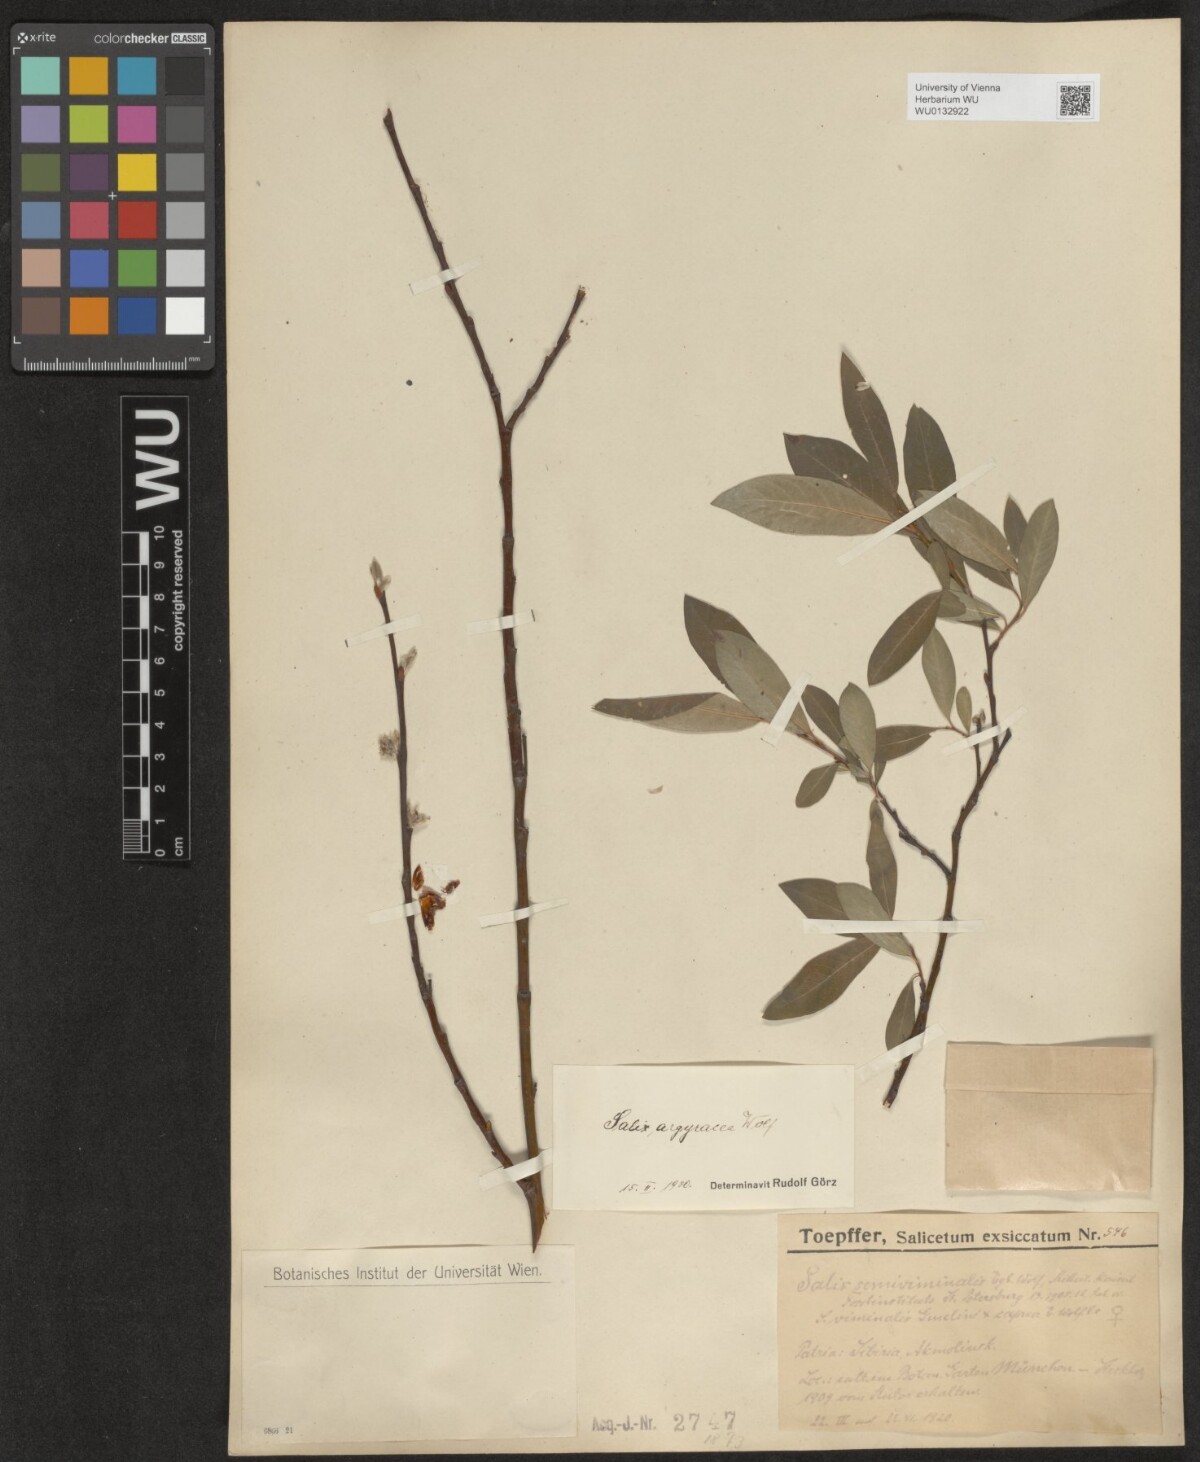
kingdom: Plantae
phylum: Tracheophyta
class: Magnoliopsida
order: Malpighiales
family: Salicaceae
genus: Salix
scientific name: Salix argyracea
